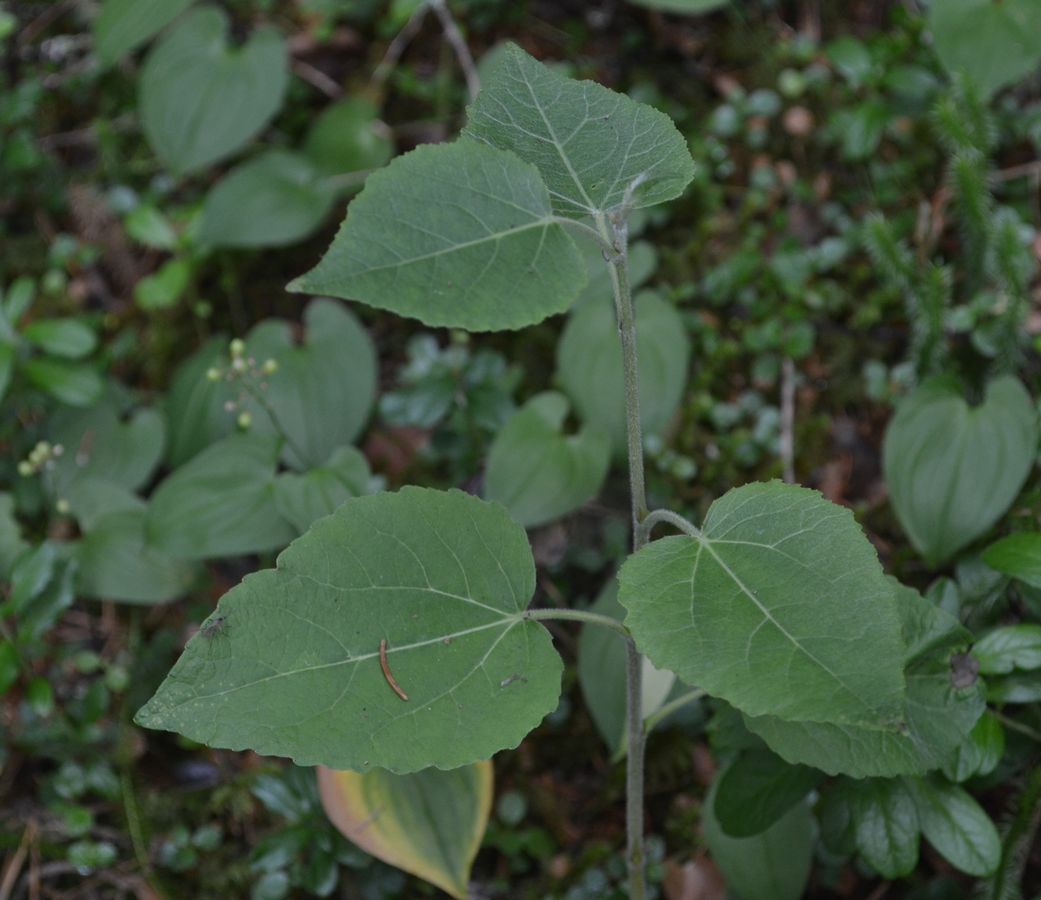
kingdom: Plantae
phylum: Tracheophyta
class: Magnoliopsida
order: Malpighiales
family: Salicaceae
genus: Populus
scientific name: Populus tremula
